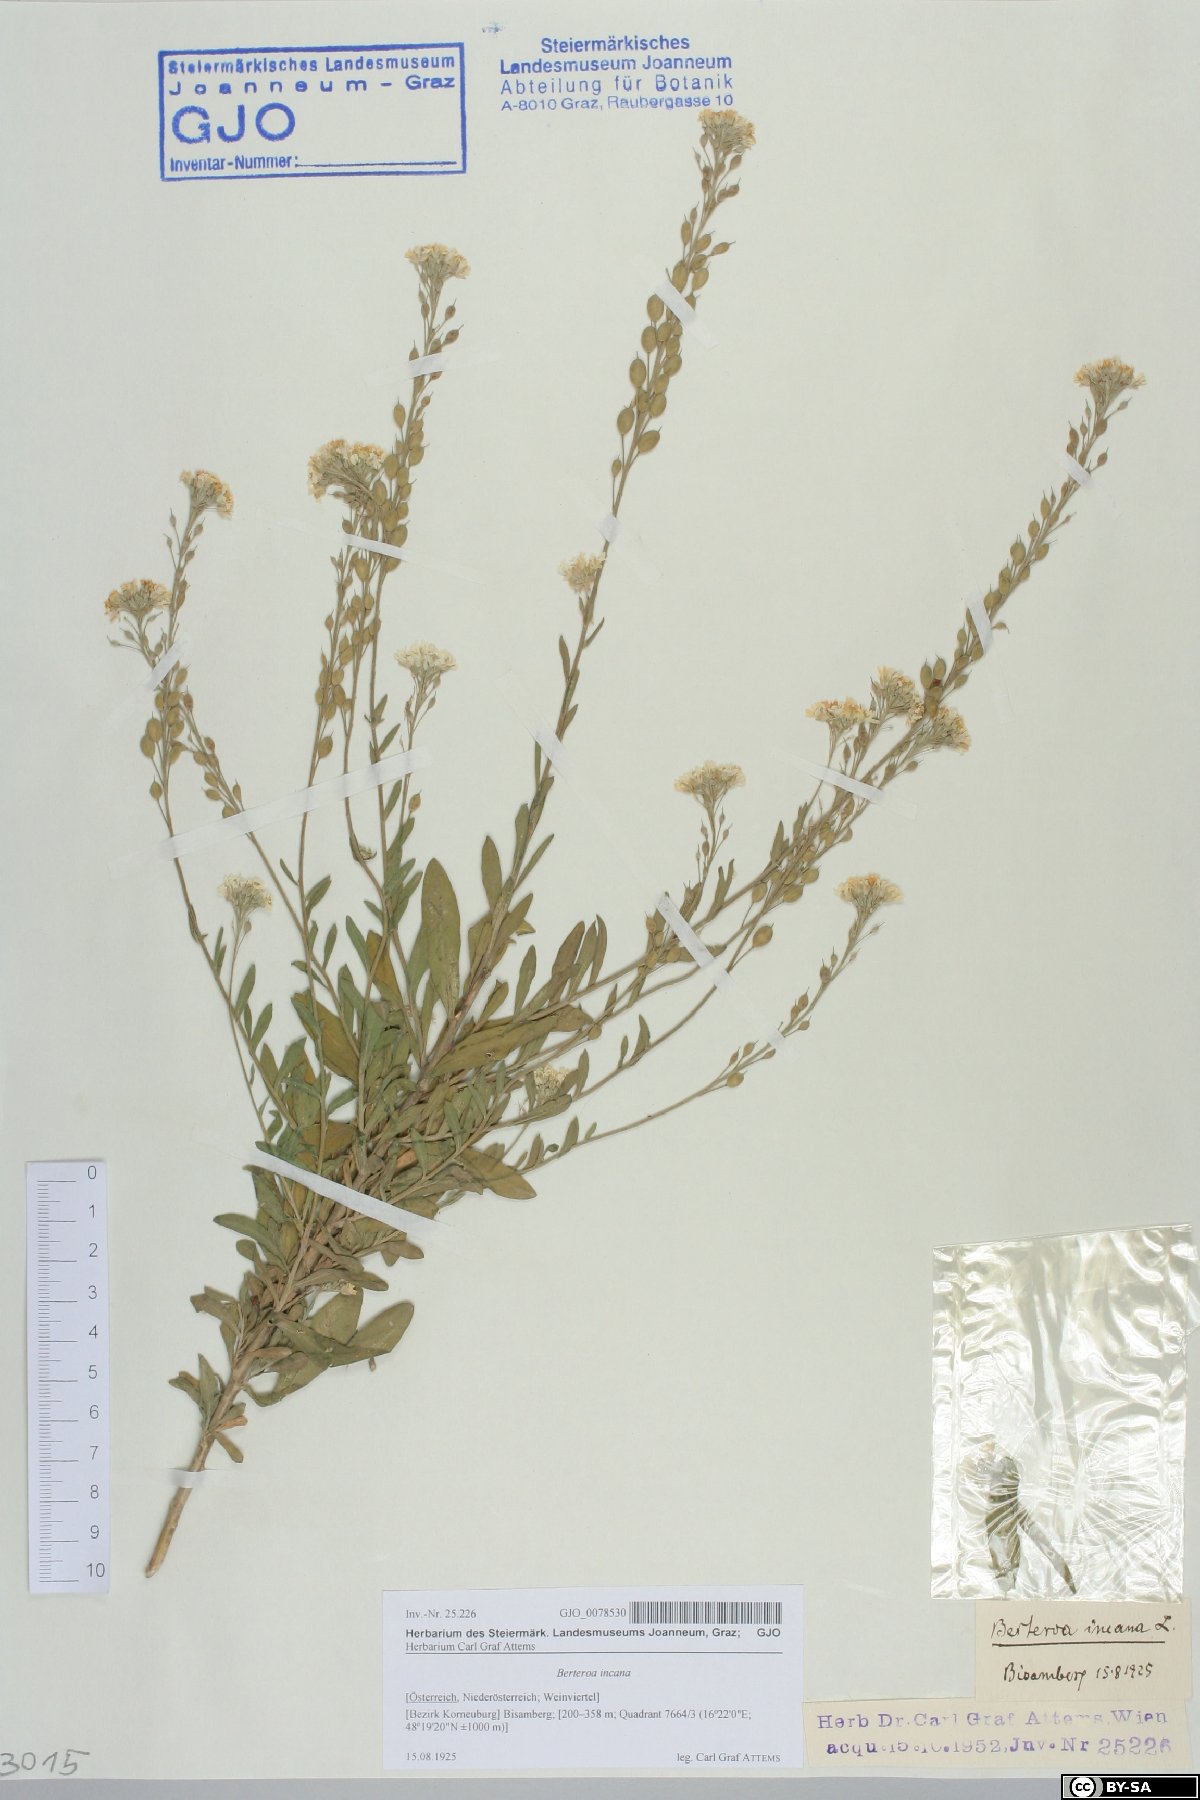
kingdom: Plantae
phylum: Tracheophyta
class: Magnoliopsida
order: Brassicales
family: Brassicaceae
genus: Berteroa
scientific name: Berteroa incana
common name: Hoary alison
